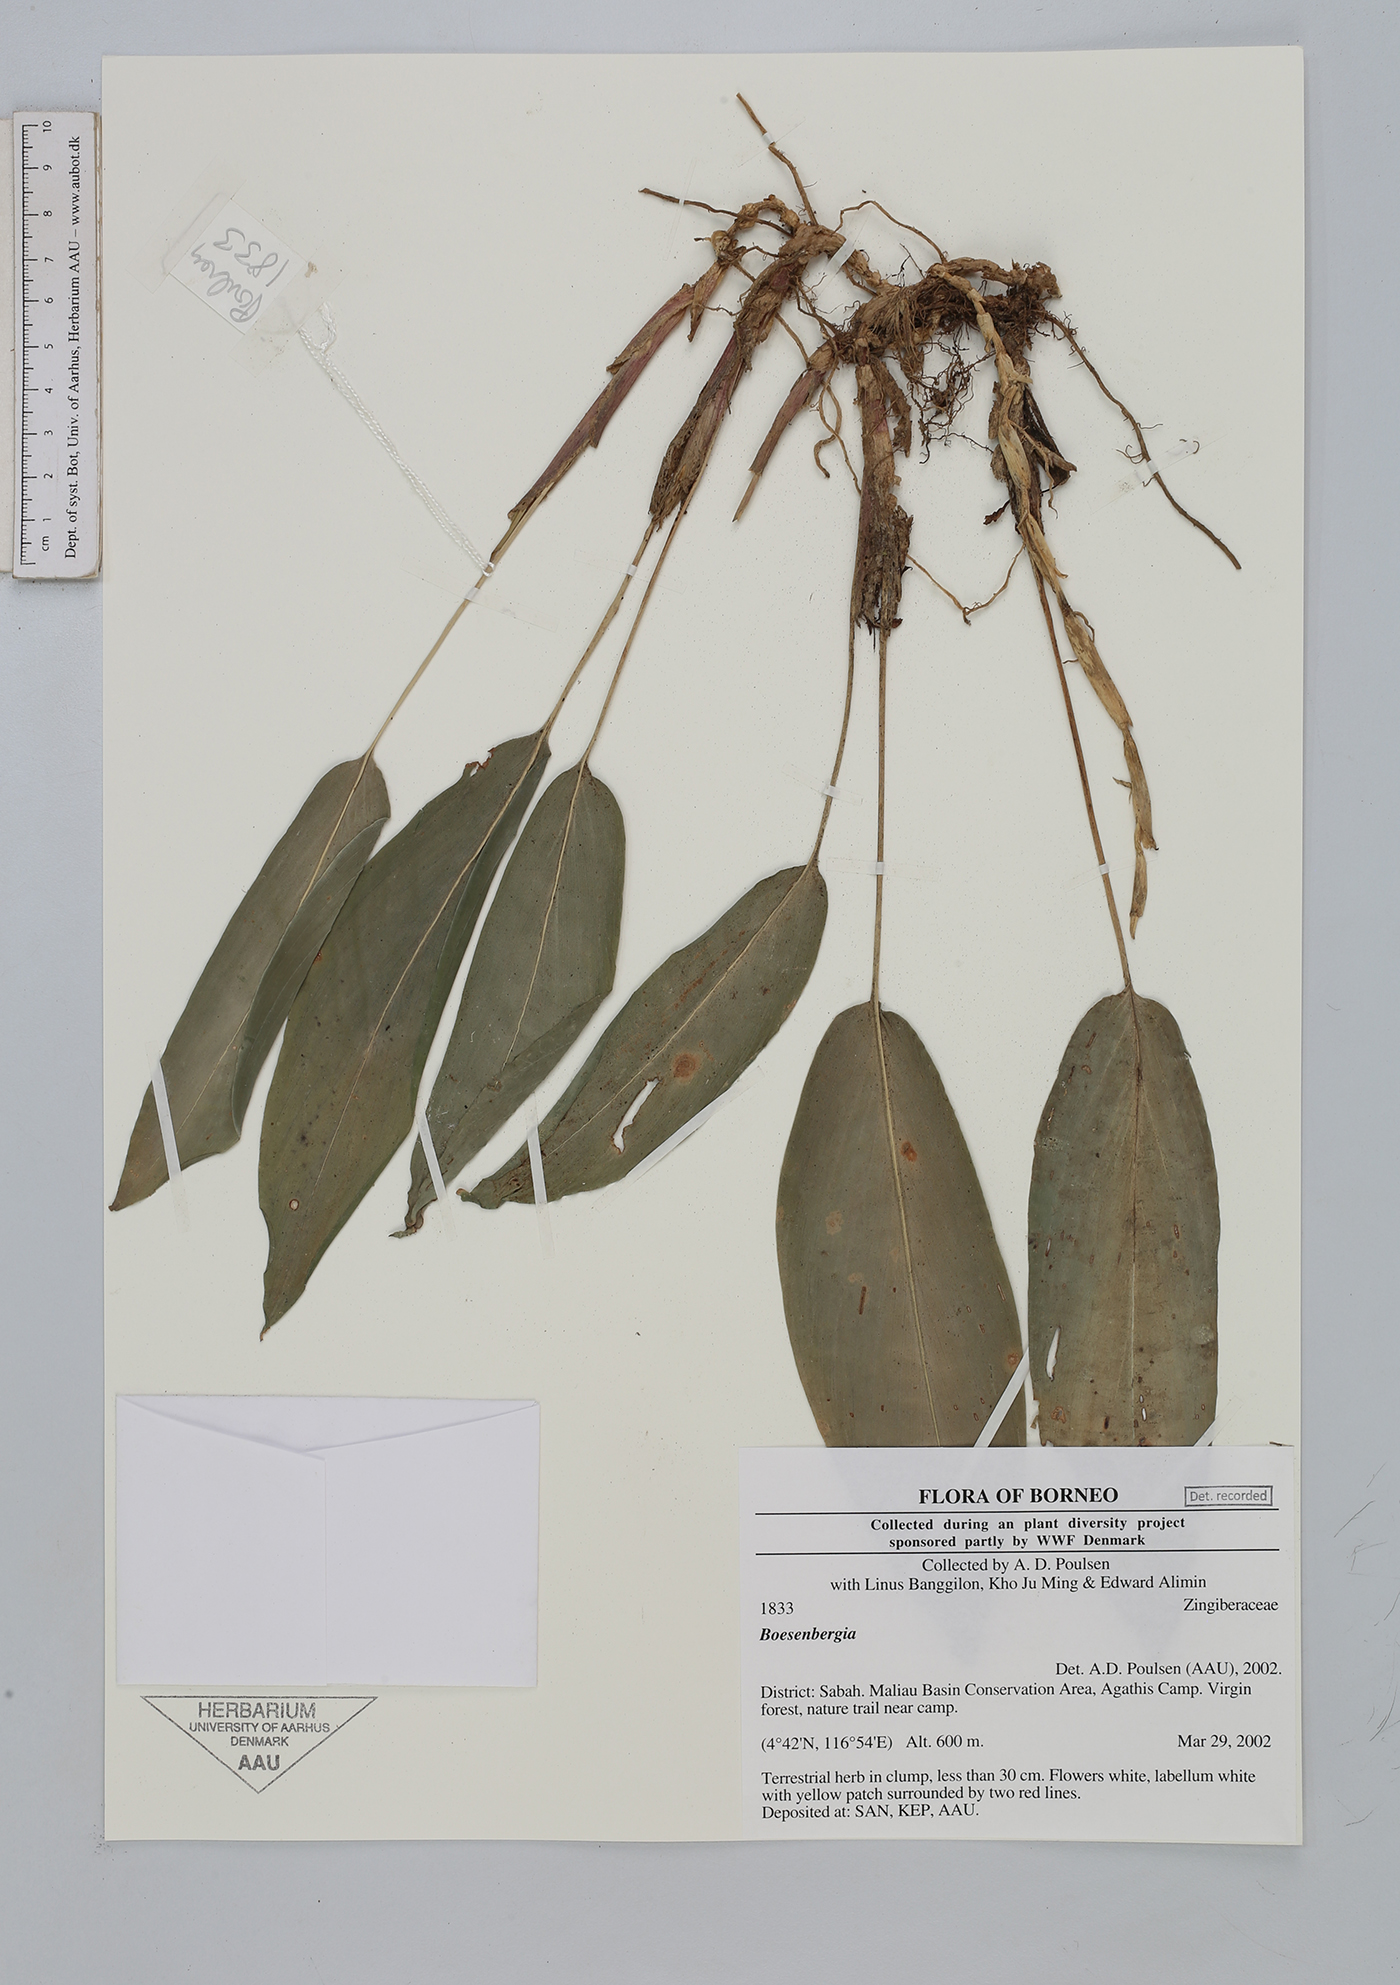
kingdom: Plantae
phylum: Tracheophyta
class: Liliopsida
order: Zingiberales
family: Zingiberaceae
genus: Boesenbergia
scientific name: Boesenbergia
